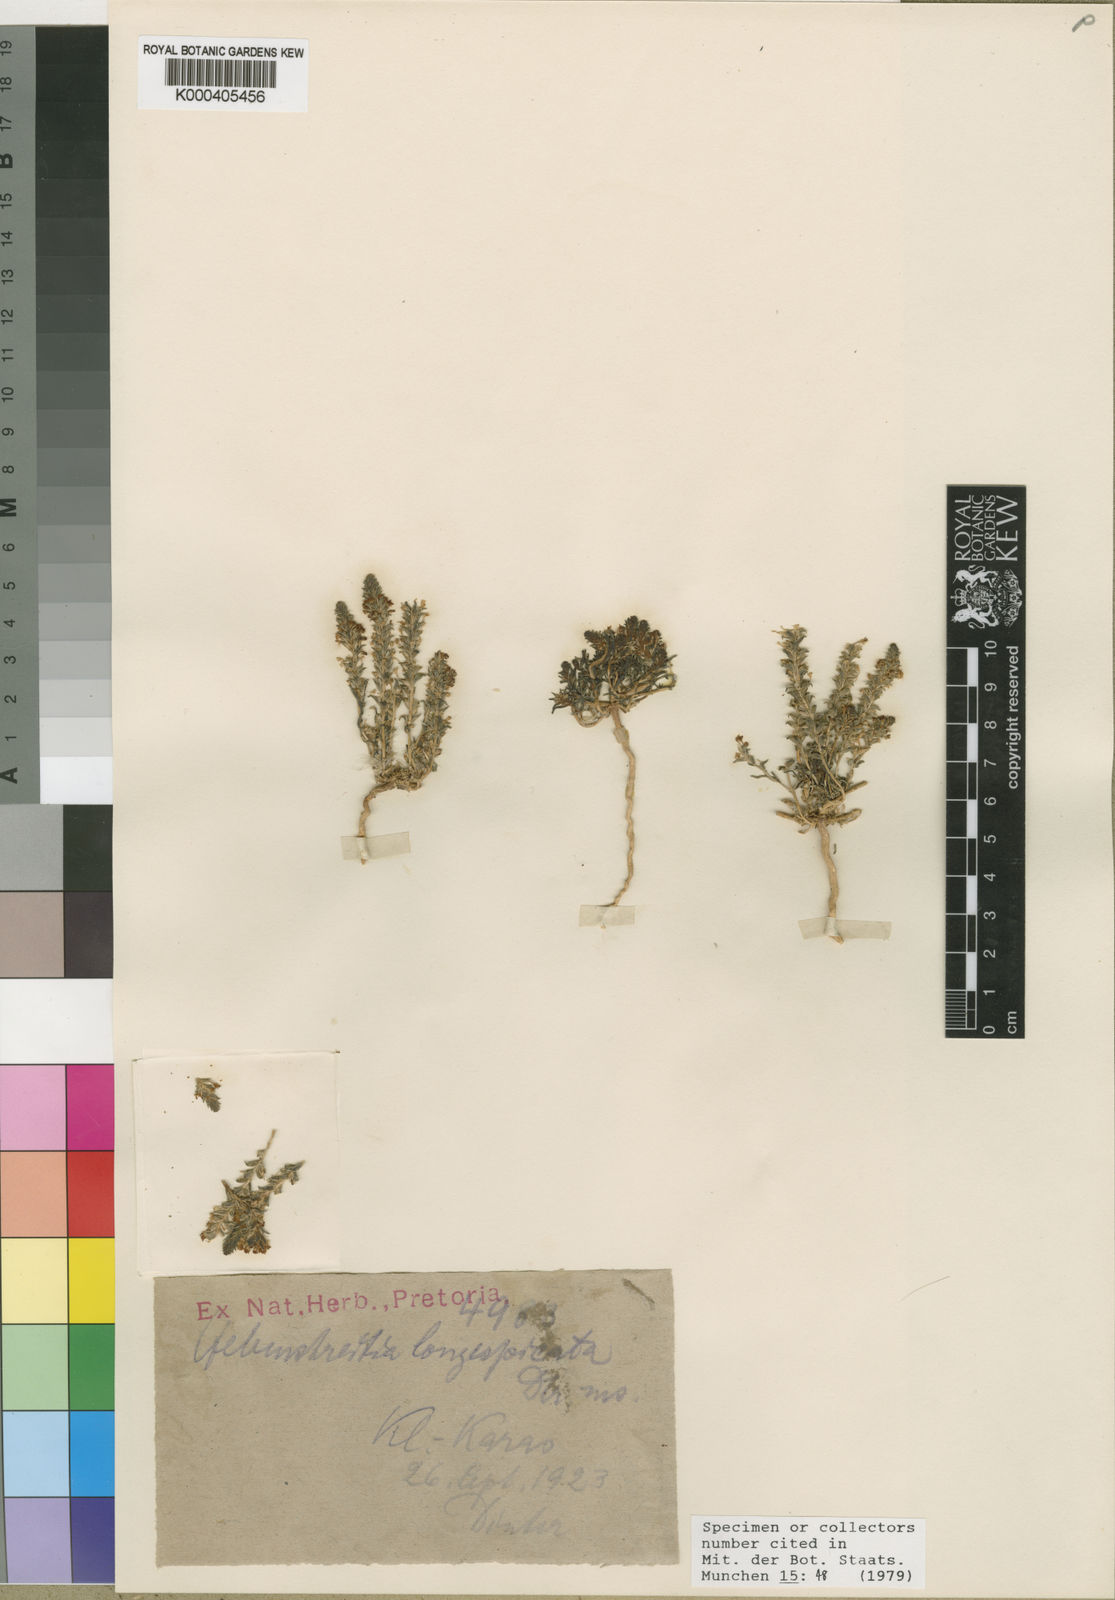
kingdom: Plantae
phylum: Tracheophyta
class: Magnoliopsida
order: Lamiales
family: Scrophulariaceae
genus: Hebenstretia
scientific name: Hebenstretia parviflora
